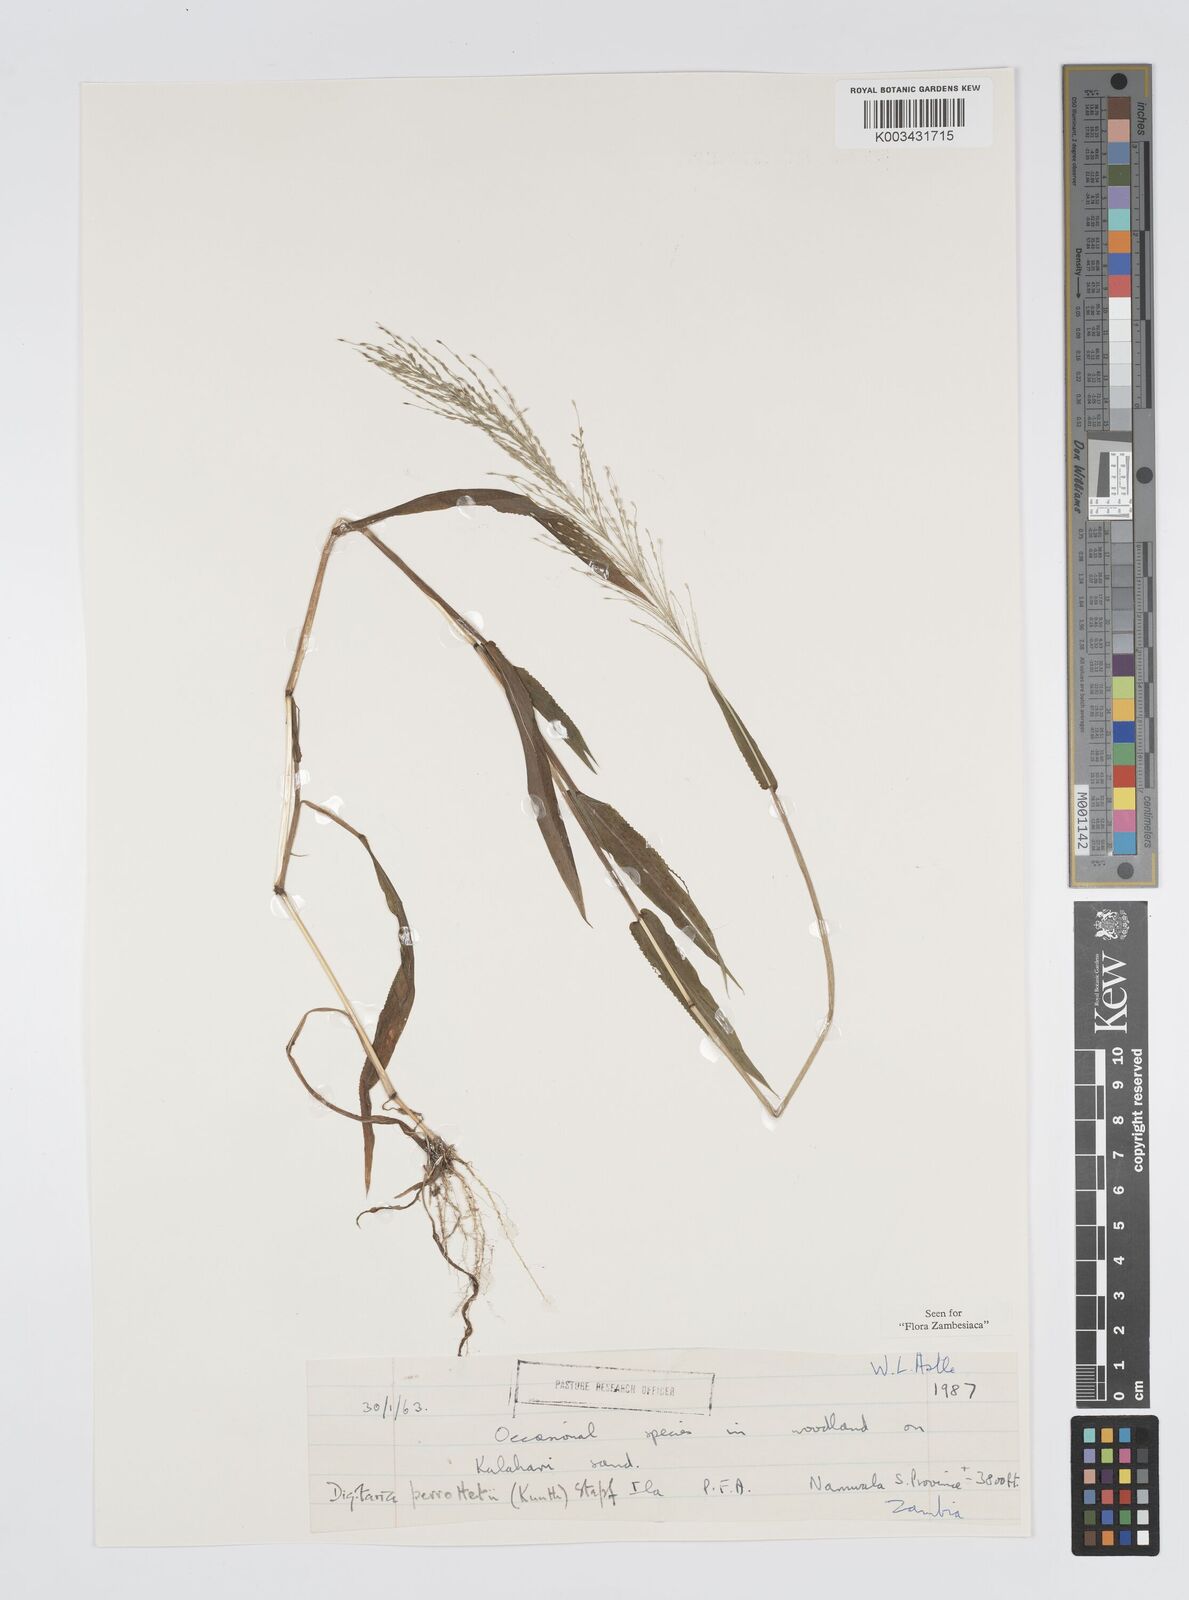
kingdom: Plantae
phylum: Tracheophyta
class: Liliopsida
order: Poales
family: Poaceae
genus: Digitaria
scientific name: Digitaria perrottetii
